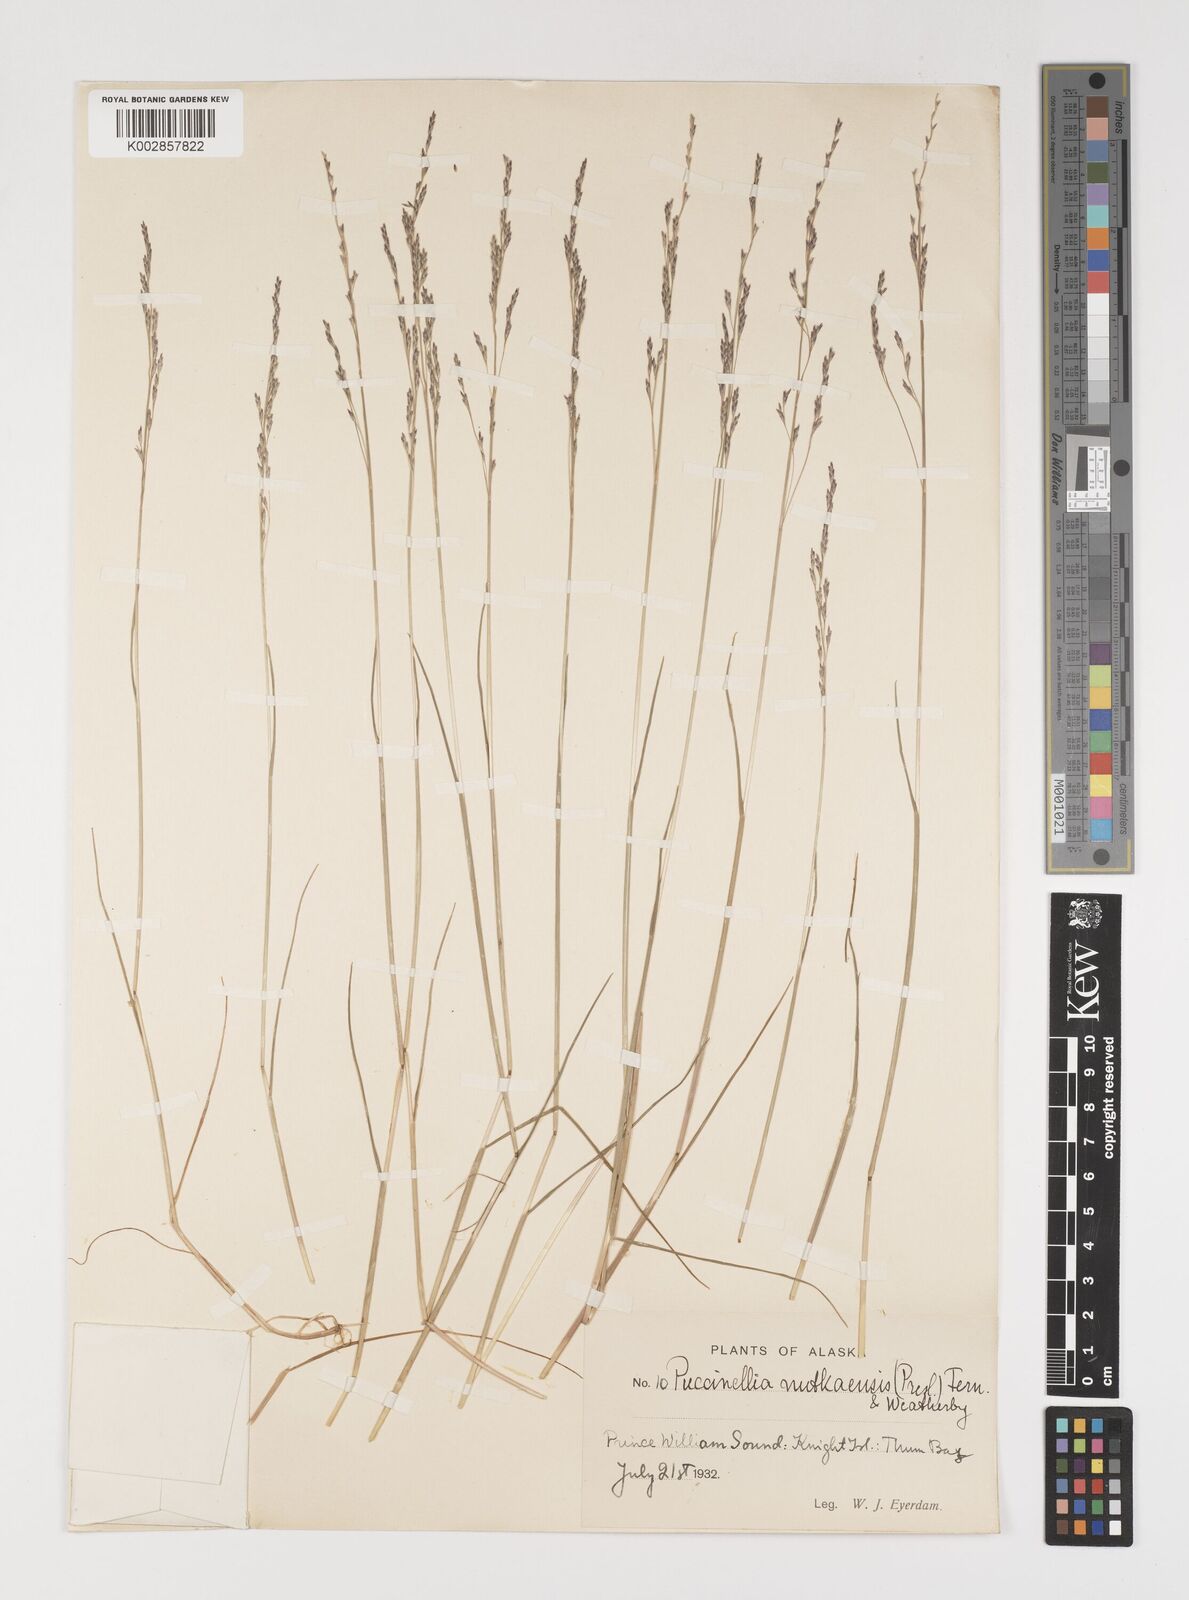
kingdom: Plantae
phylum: Tracheophyta
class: Liliopsida
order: Poales
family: Poaceae
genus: Puccinellia
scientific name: Puccinellia nutkaensis
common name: Nootka alkaligrass
